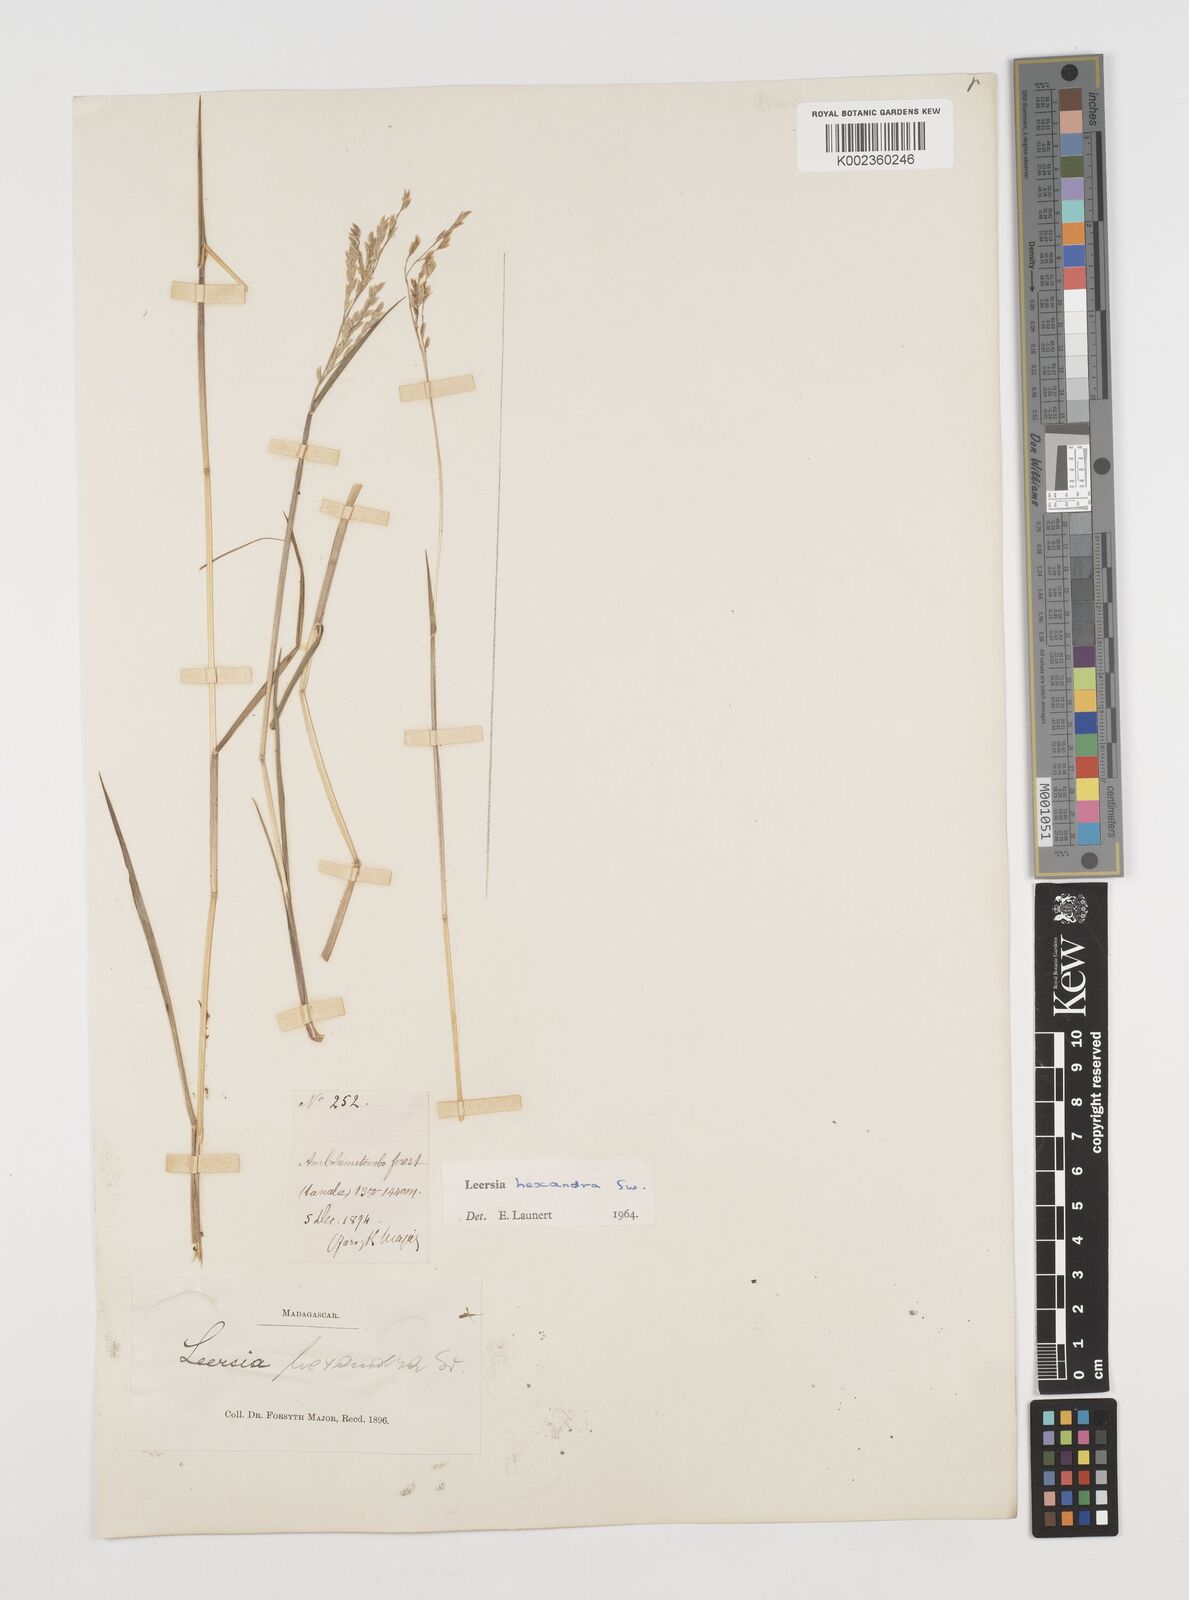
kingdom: Plantae
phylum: Tracheophyta
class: Liliopsida
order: Poales
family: Poaceae
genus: Leersia
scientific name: Leersia hexandra
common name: Southern cut grass
